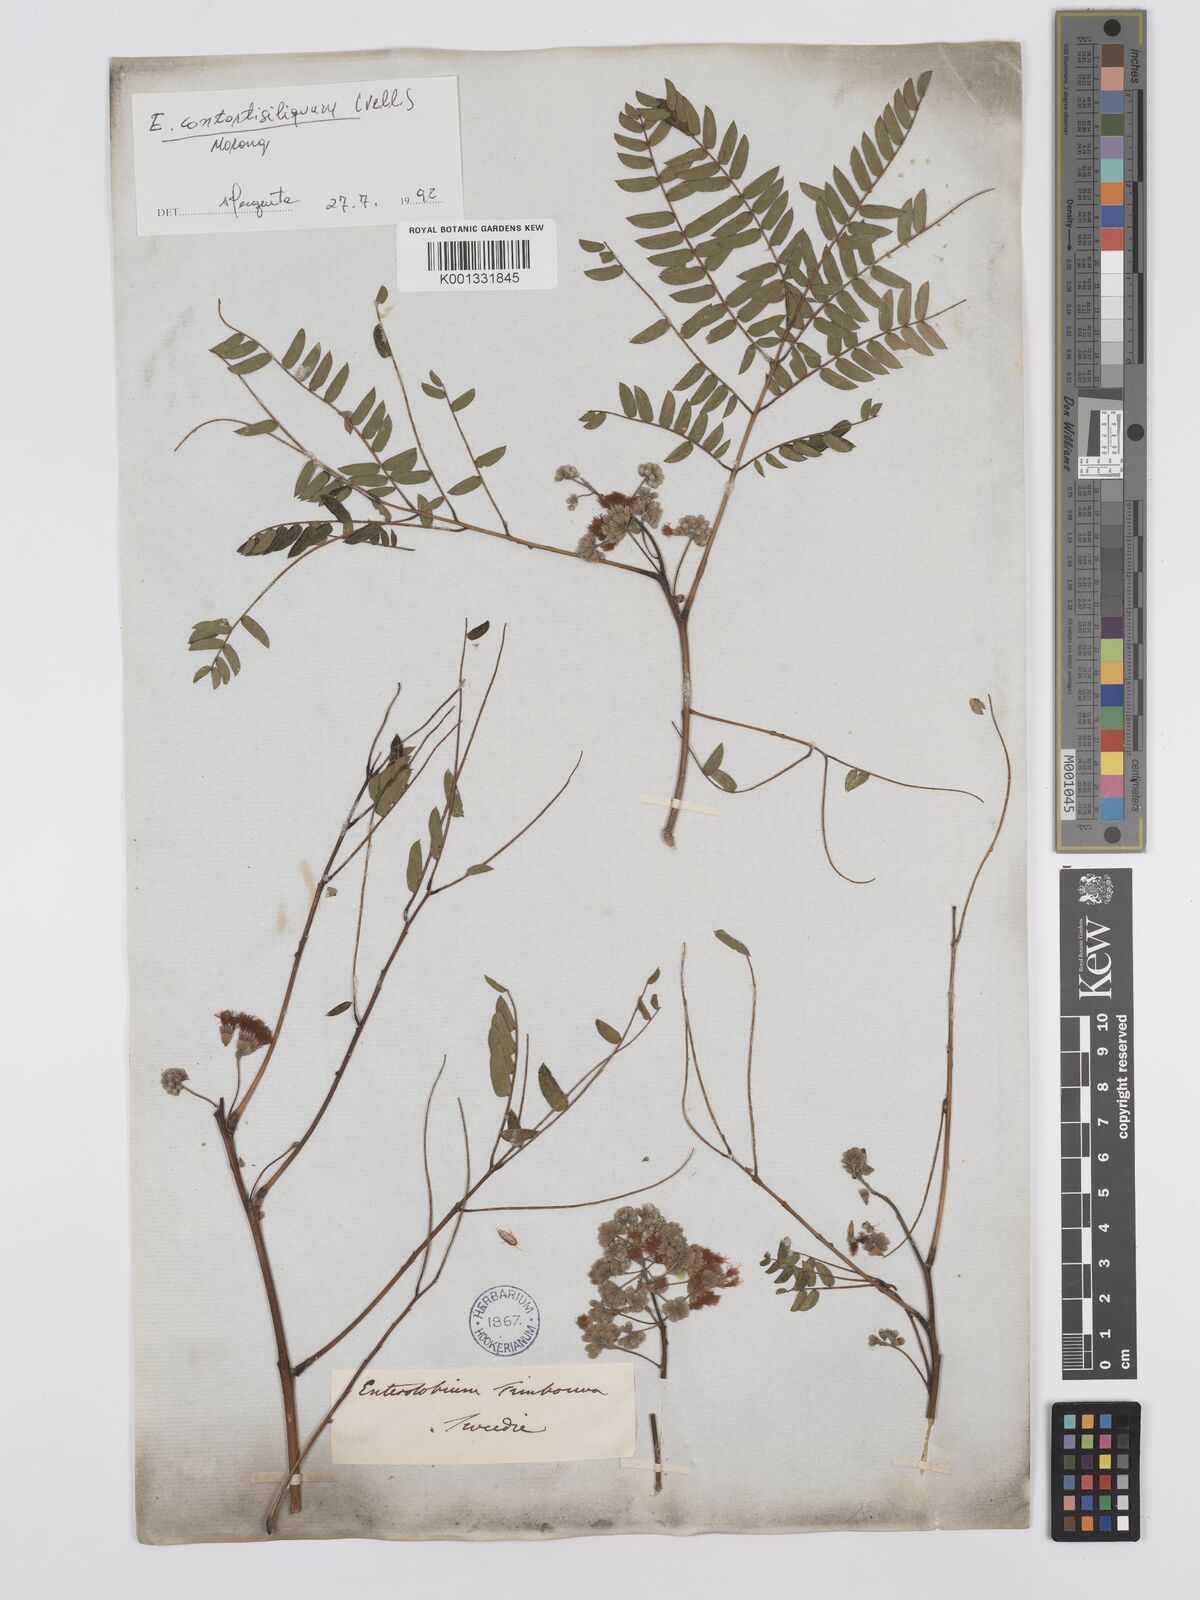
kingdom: Plantae
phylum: Tracheophyta
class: Magnoliopsida
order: Fabales
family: Fabaceae
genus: Enterolobium
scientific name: Enterolobium contortisiliquum
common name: Pacara earpod tree
